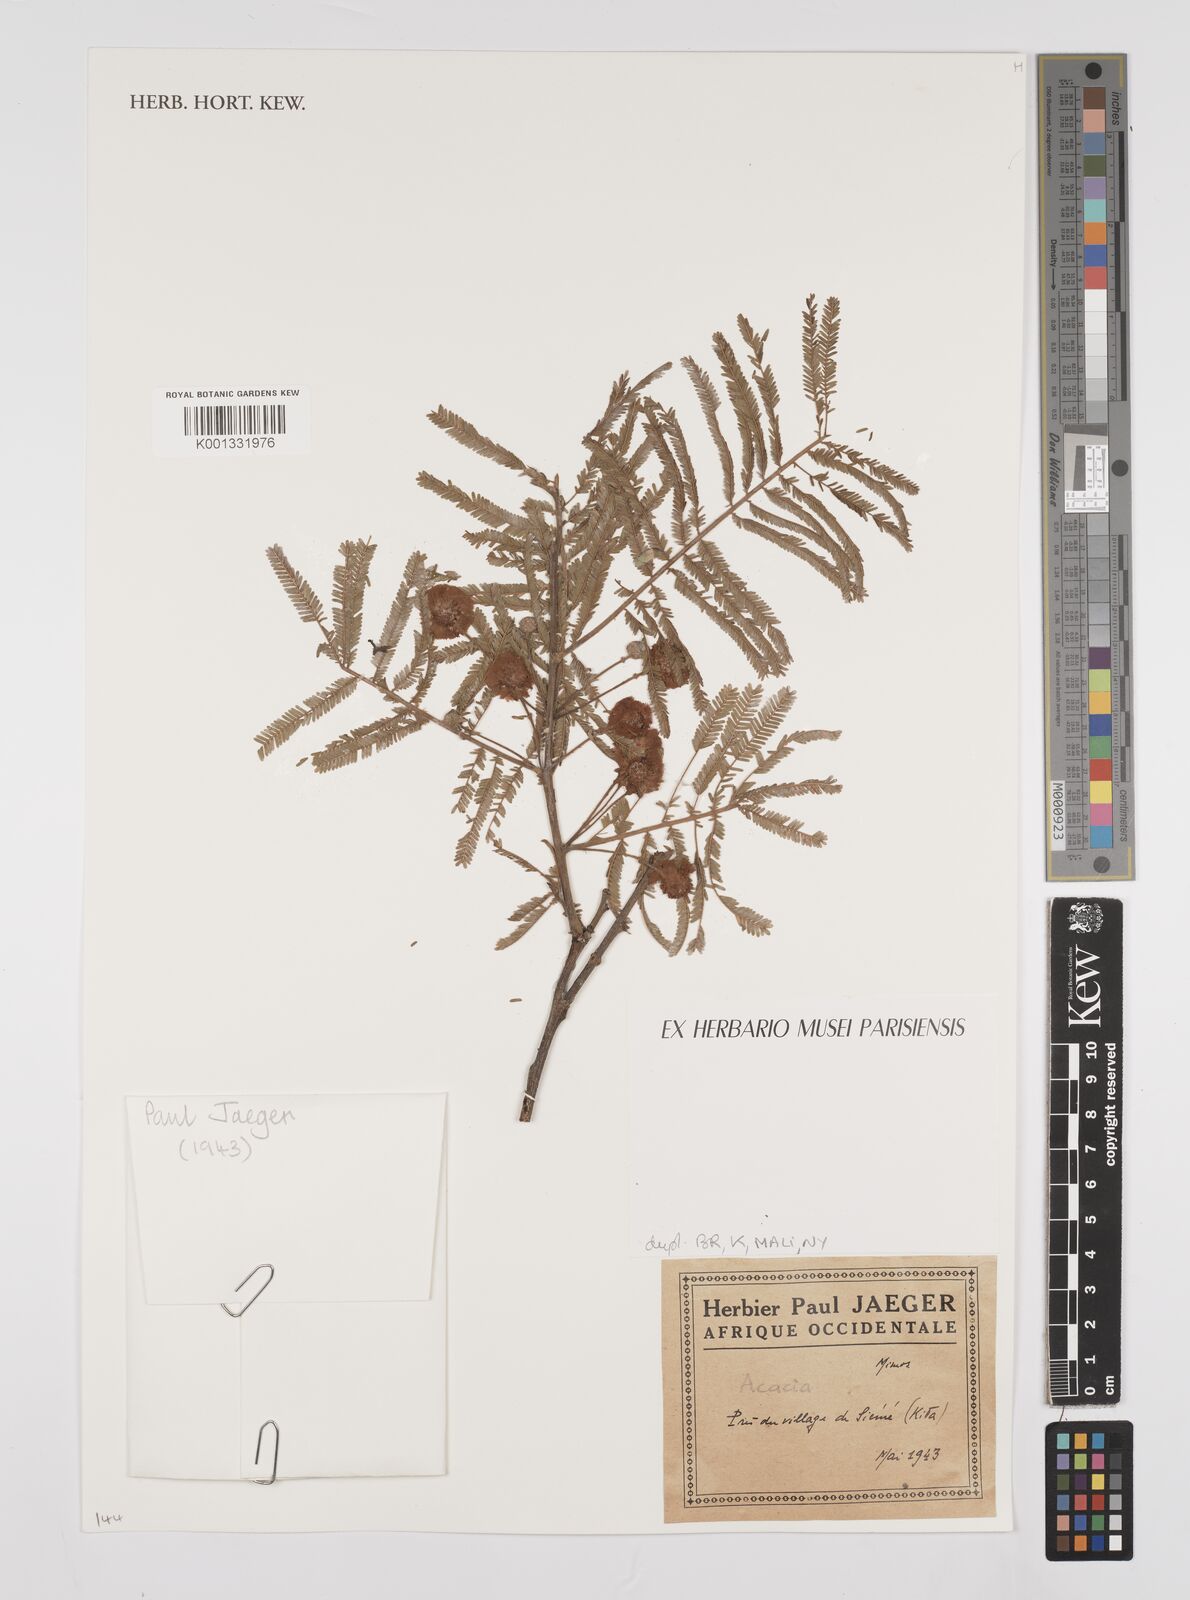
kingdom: Plantae
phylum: Tracheophyta
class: Magnoliopsida
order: Fabales
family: Fabaceae
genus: Acacia
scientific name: Acacia
